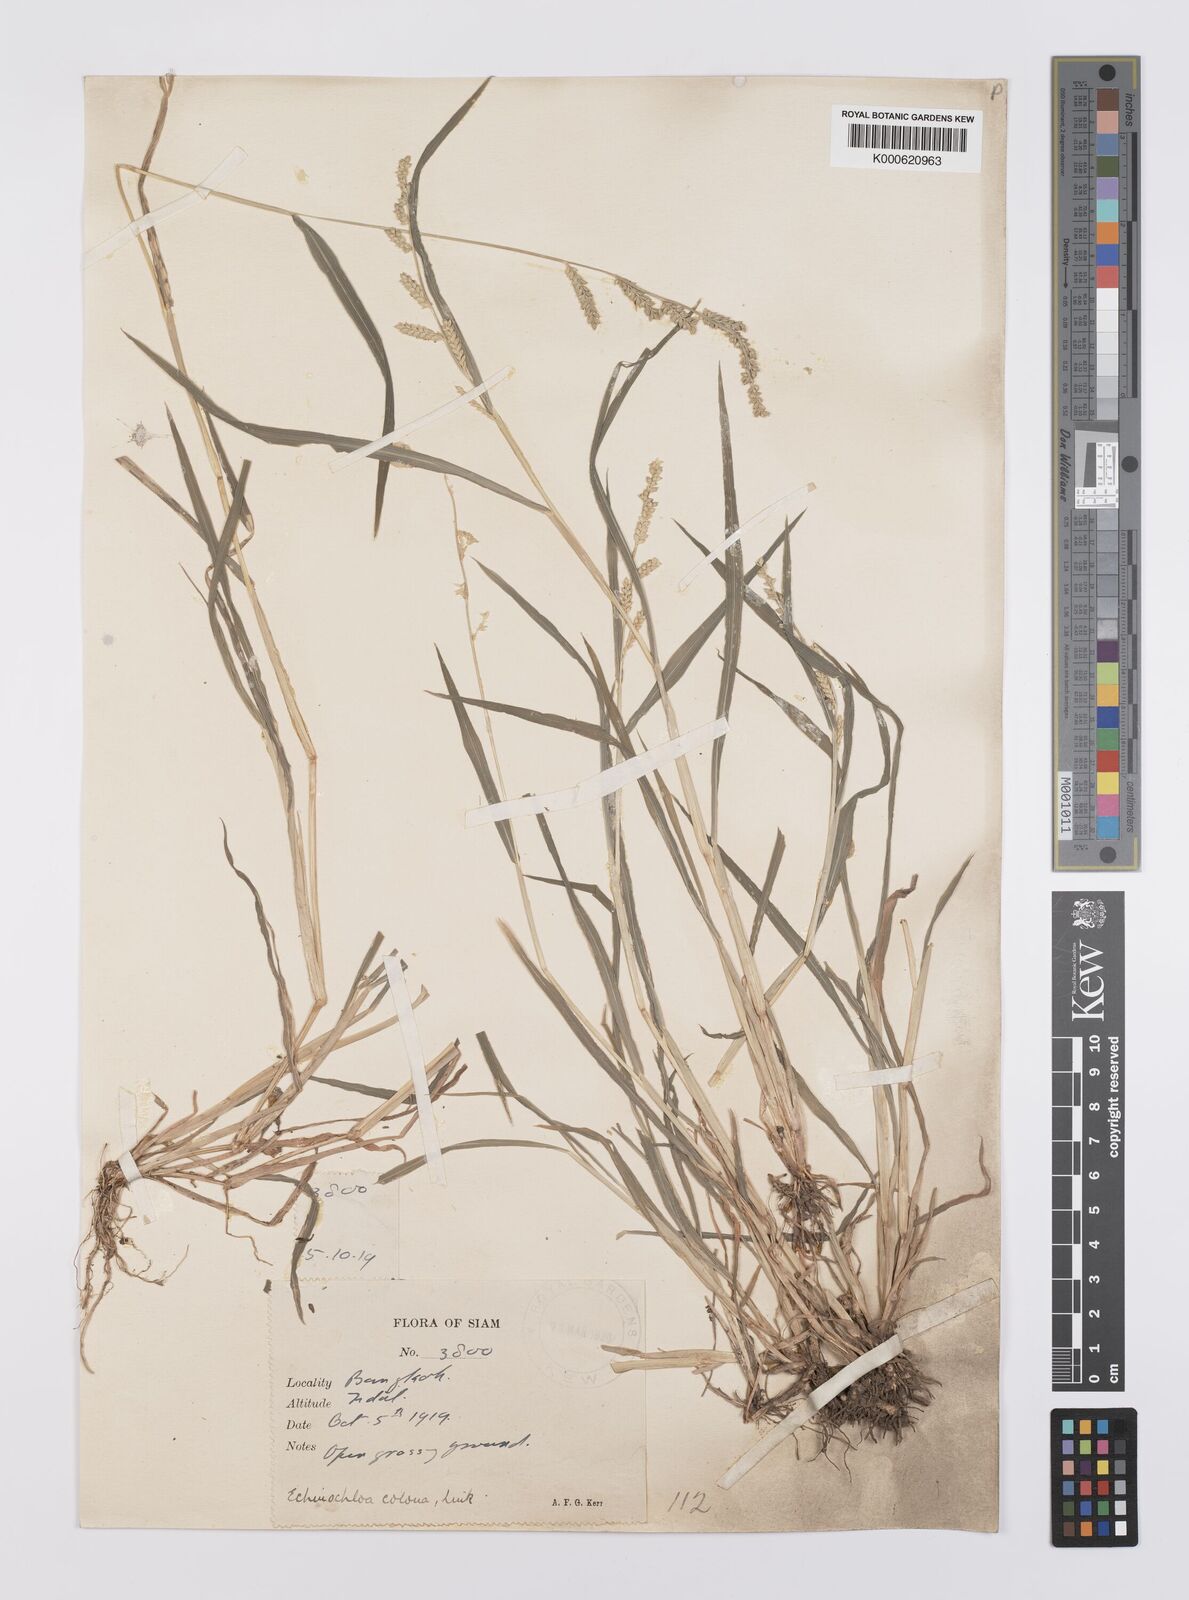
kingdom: Plantae
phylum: Tracheophyta
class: Liliopsida
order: Poales
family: Poaceae
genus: Echinochloa
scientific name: Echinochloa colonum
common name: Jungle rice
